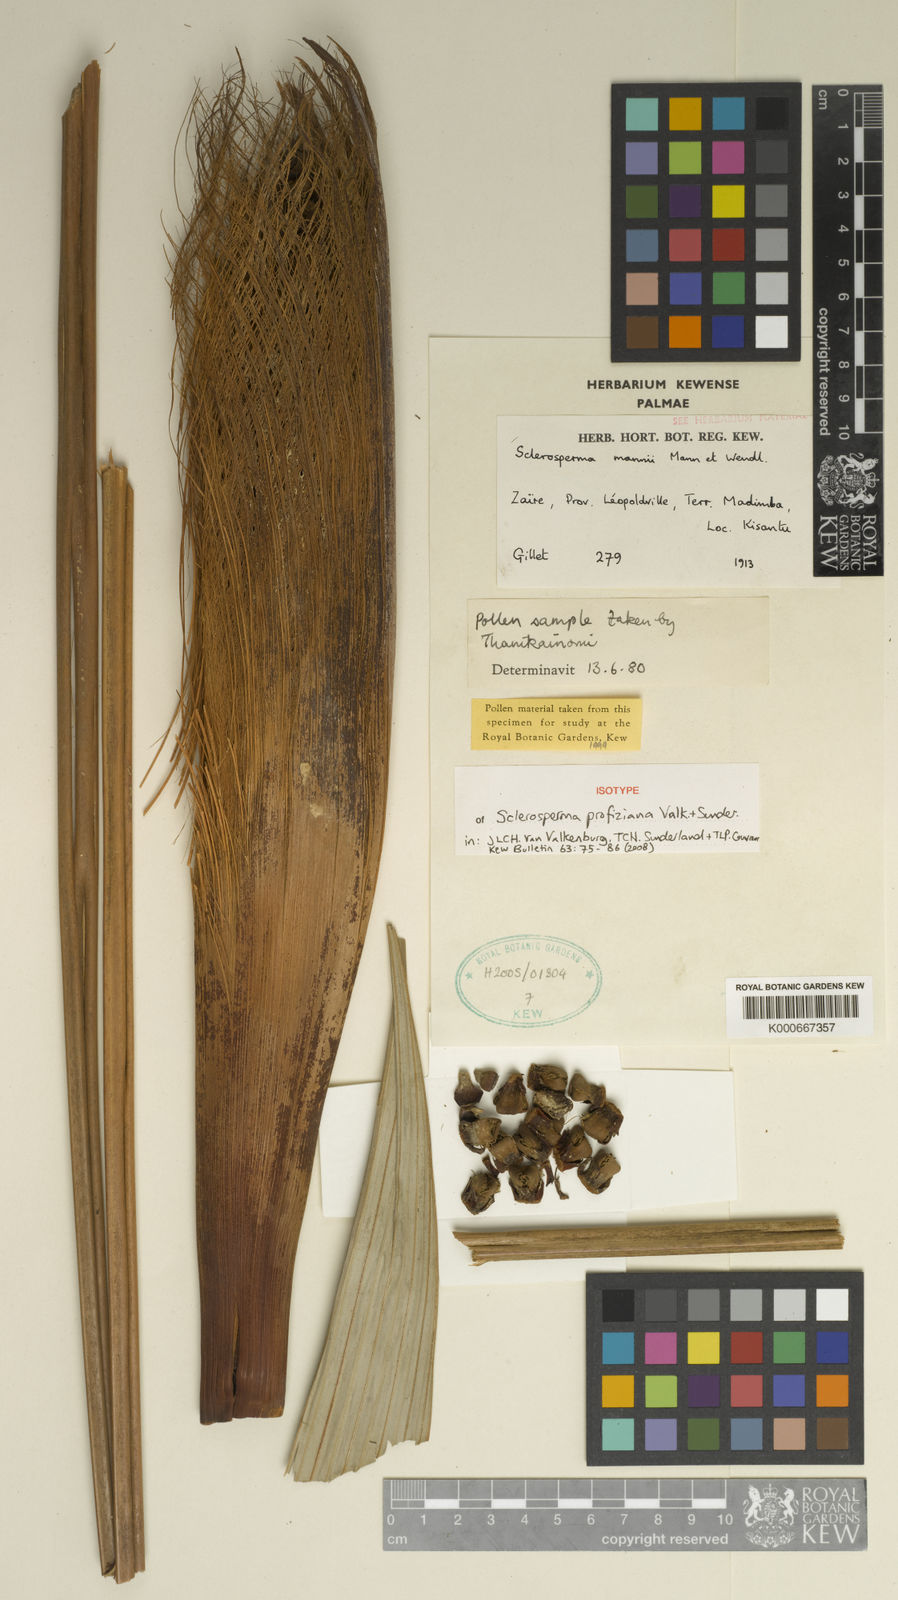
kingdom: Plantae
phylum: Tracheophyta
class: Liliopsida
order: Arecales
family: Arecaceae
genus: Sclerosperma
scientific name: Sclerosperma profizianum
